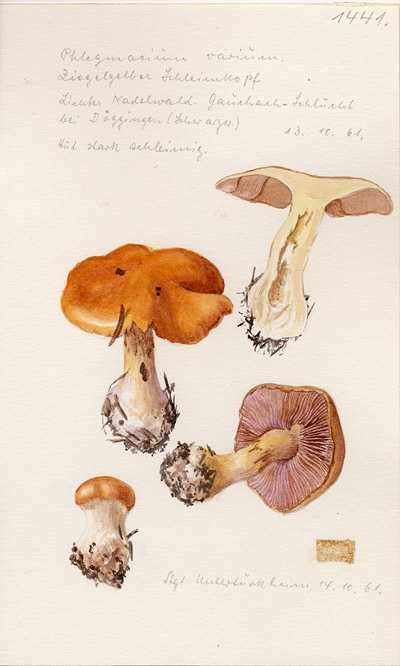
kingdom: Fungi
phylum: Basidiomycota
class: Agaricomycetes
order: Agaricales
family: Cortinariaceae
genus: Cortinarius
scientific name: Cortinarius varius
